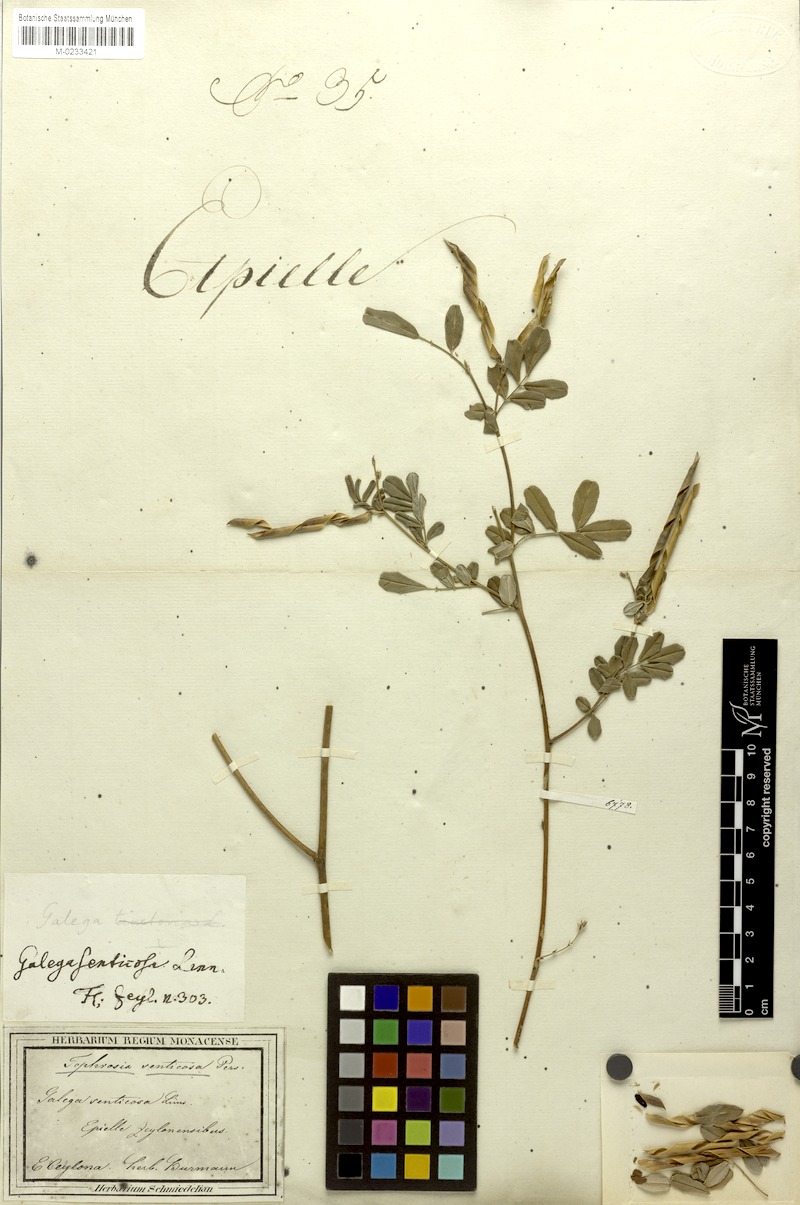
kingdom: Plantae
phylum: Tracheophyta
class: Magnoliopsida
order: Fabales
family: Fabaceae
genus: Tephrosia
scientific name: Tephrosia senticosa
